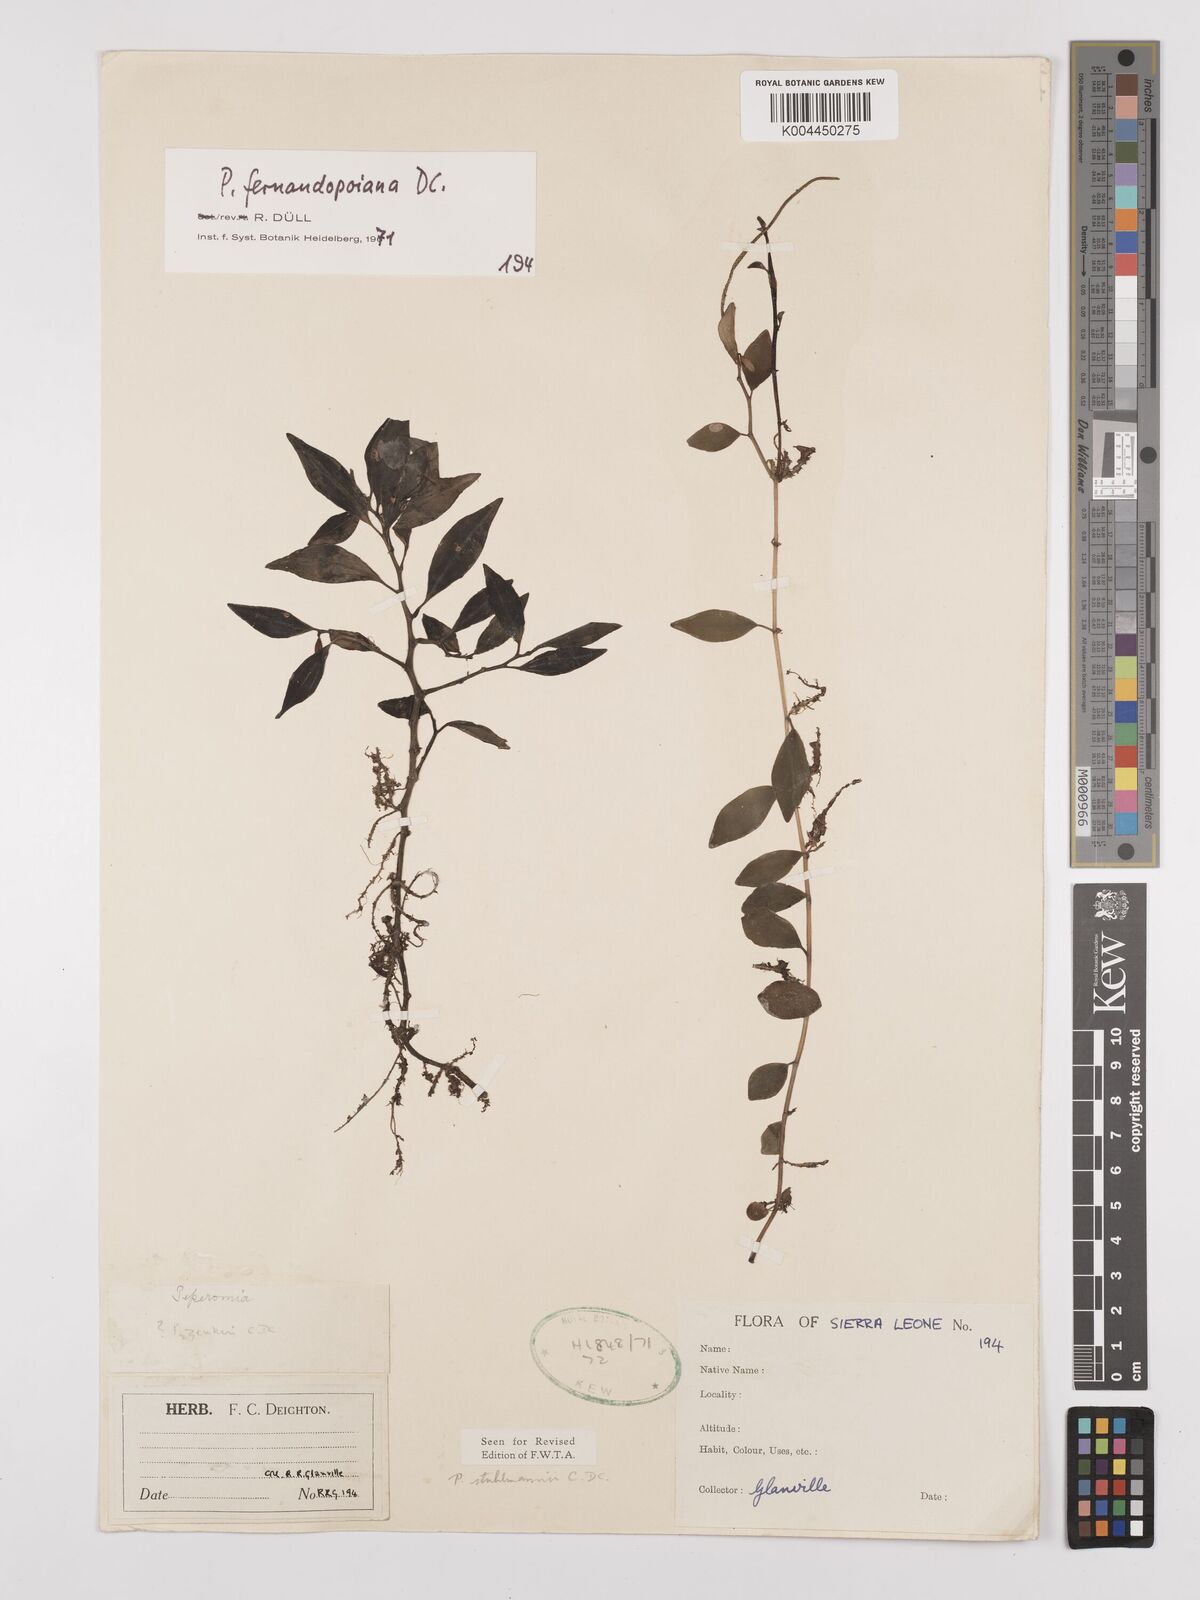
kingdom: Plantae
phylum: Tracheophyta
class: Magnoliopsida
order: Piperales
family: Piperaceae
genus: Peperomia
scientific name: Peperomia fernandeziana
